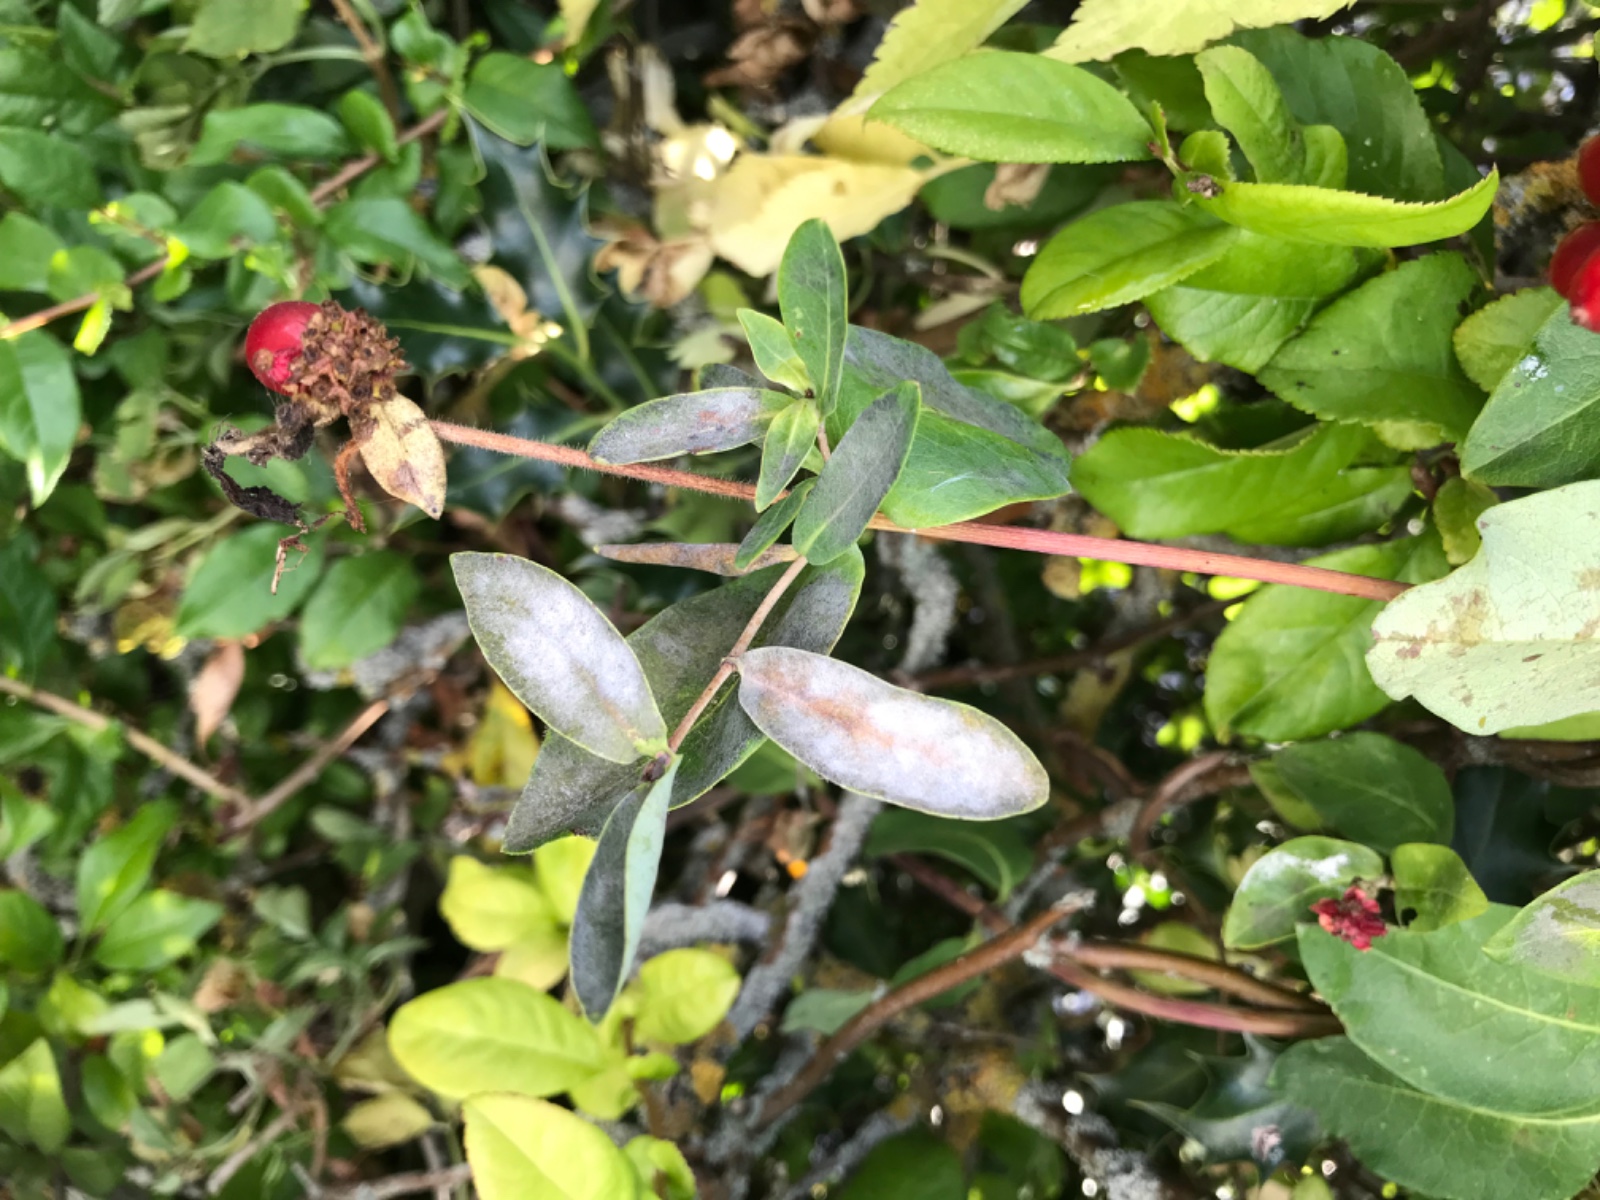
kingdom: Fungi
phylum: Ascomycota
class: Leotiomycetes
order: Helotiales
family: Erysiphaceae
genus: Erysiphe
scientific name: Erysiphe lonicerae
